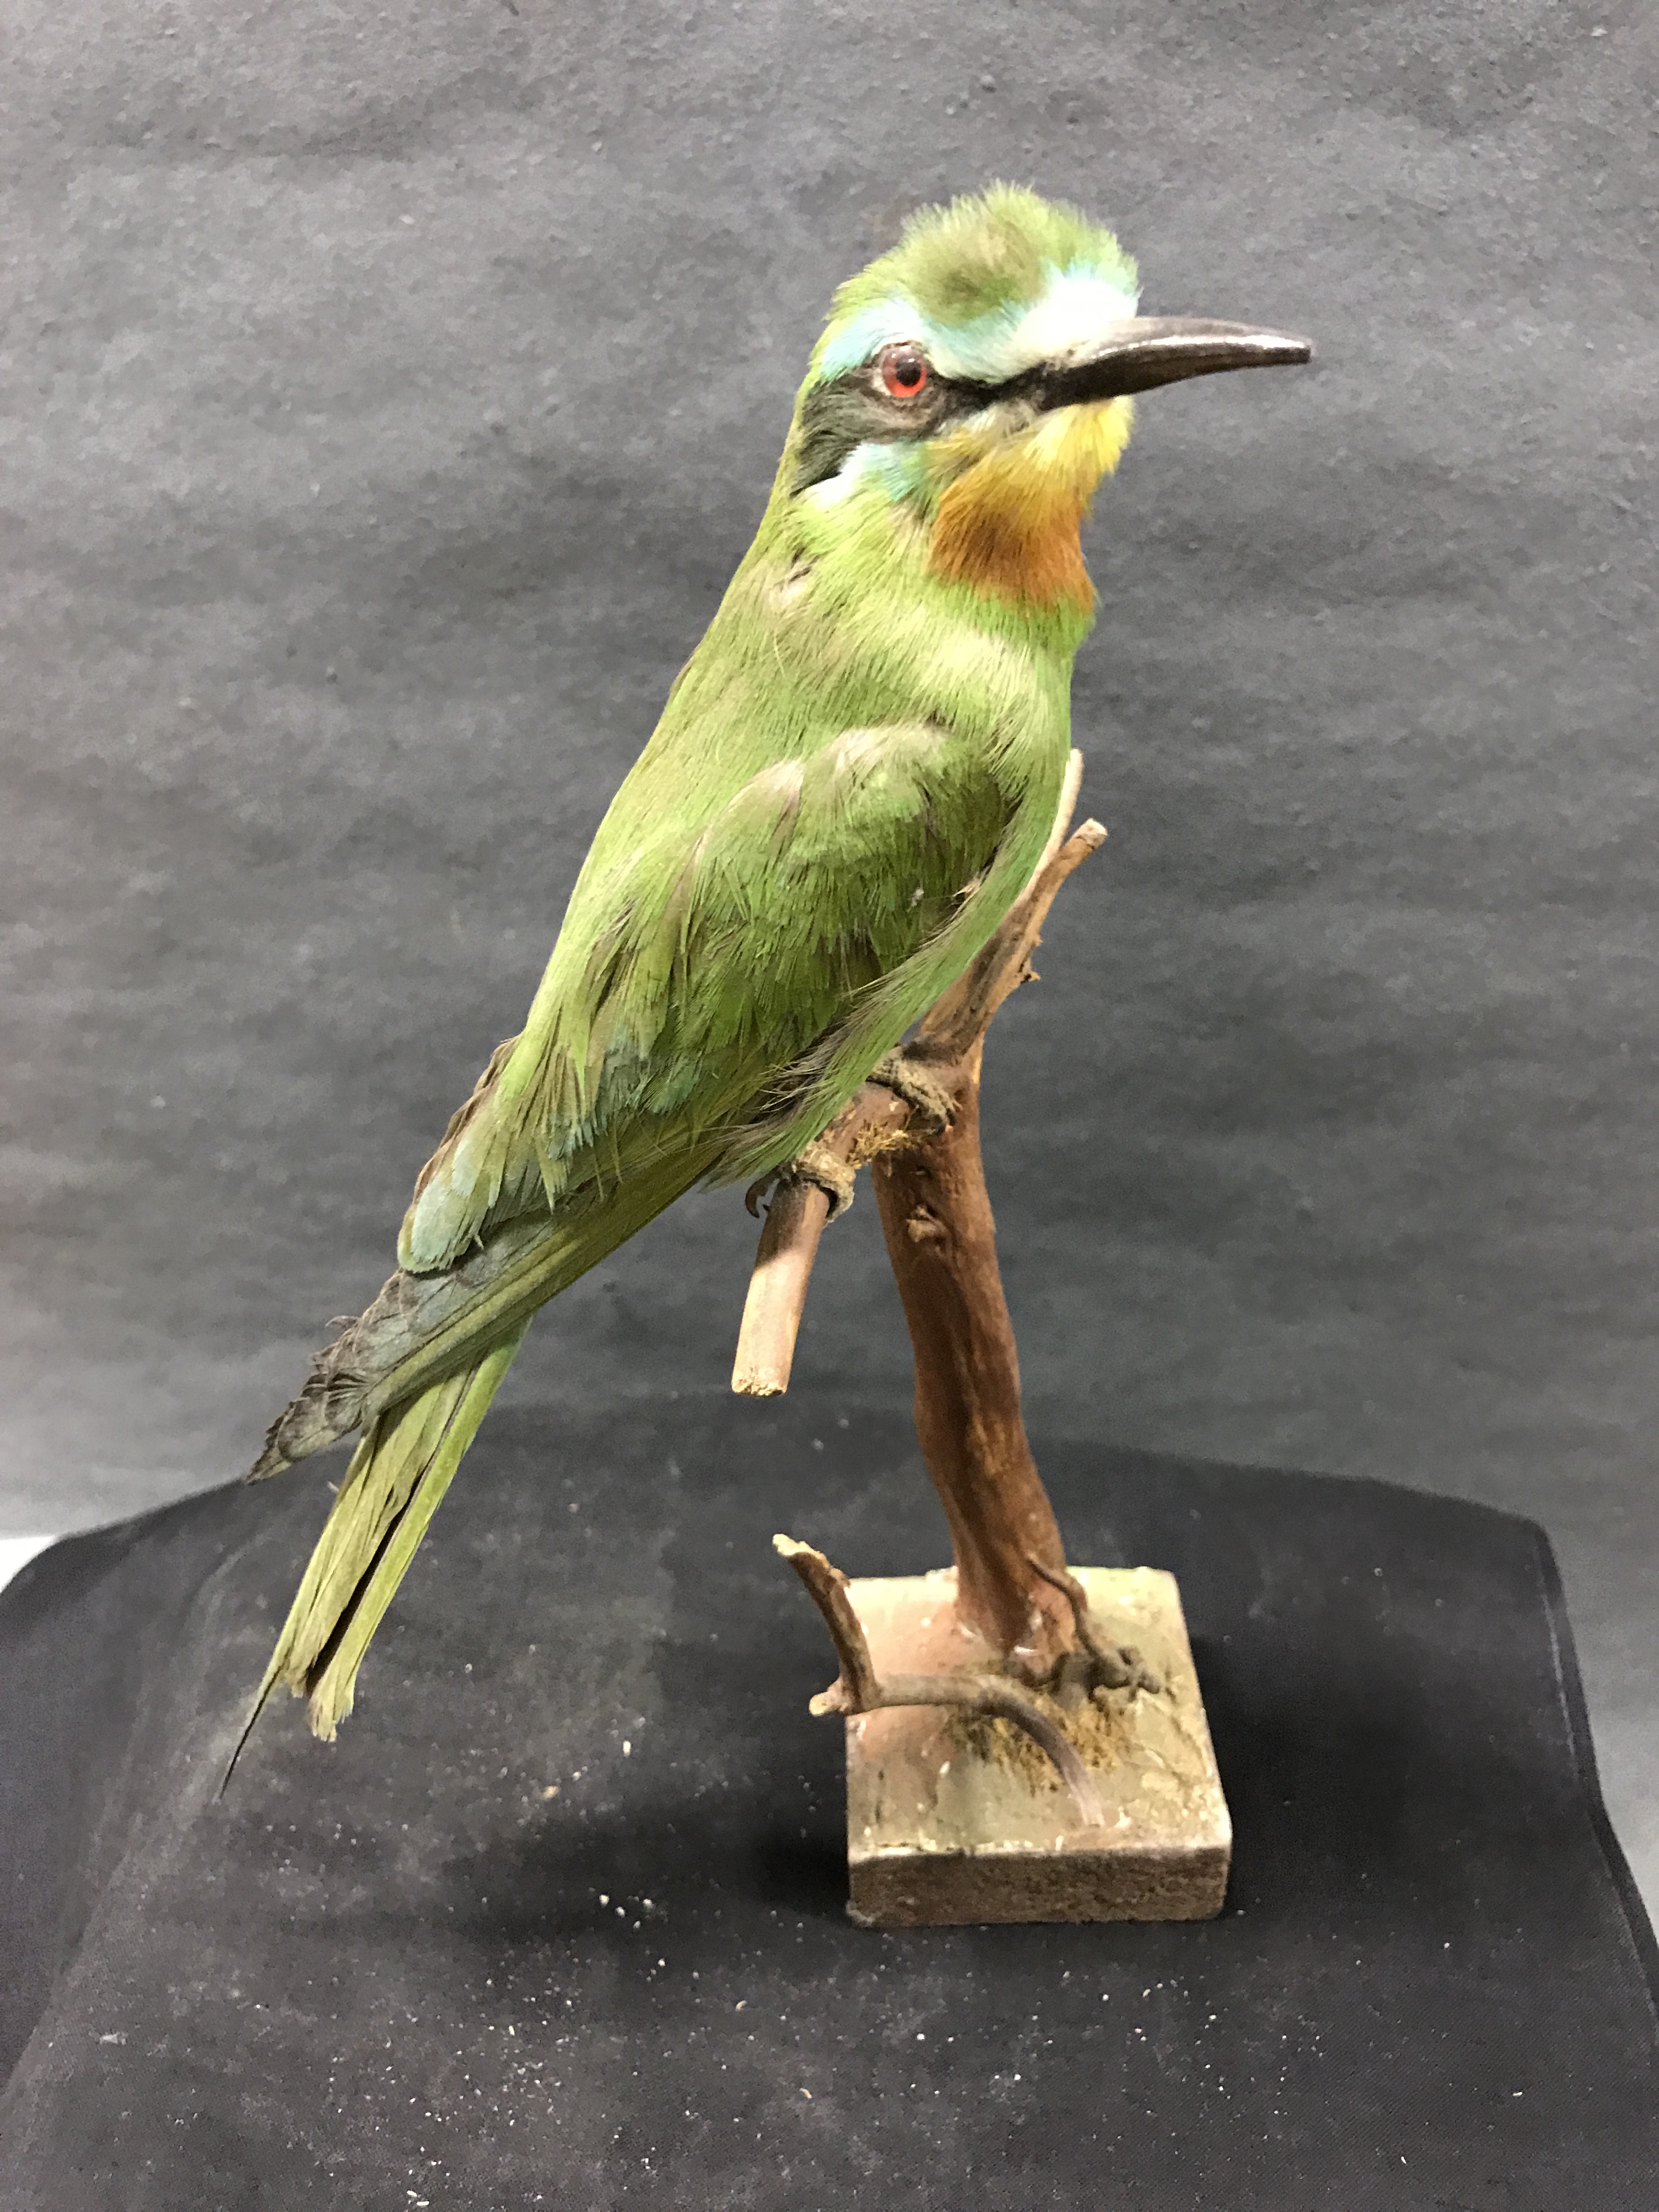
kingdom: Animalia
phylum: Chordata
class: Aves
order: Coraciiformes
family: Meropidae
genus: Merops
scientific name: Merops persicus
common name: Blue-cheeked bee-eater
